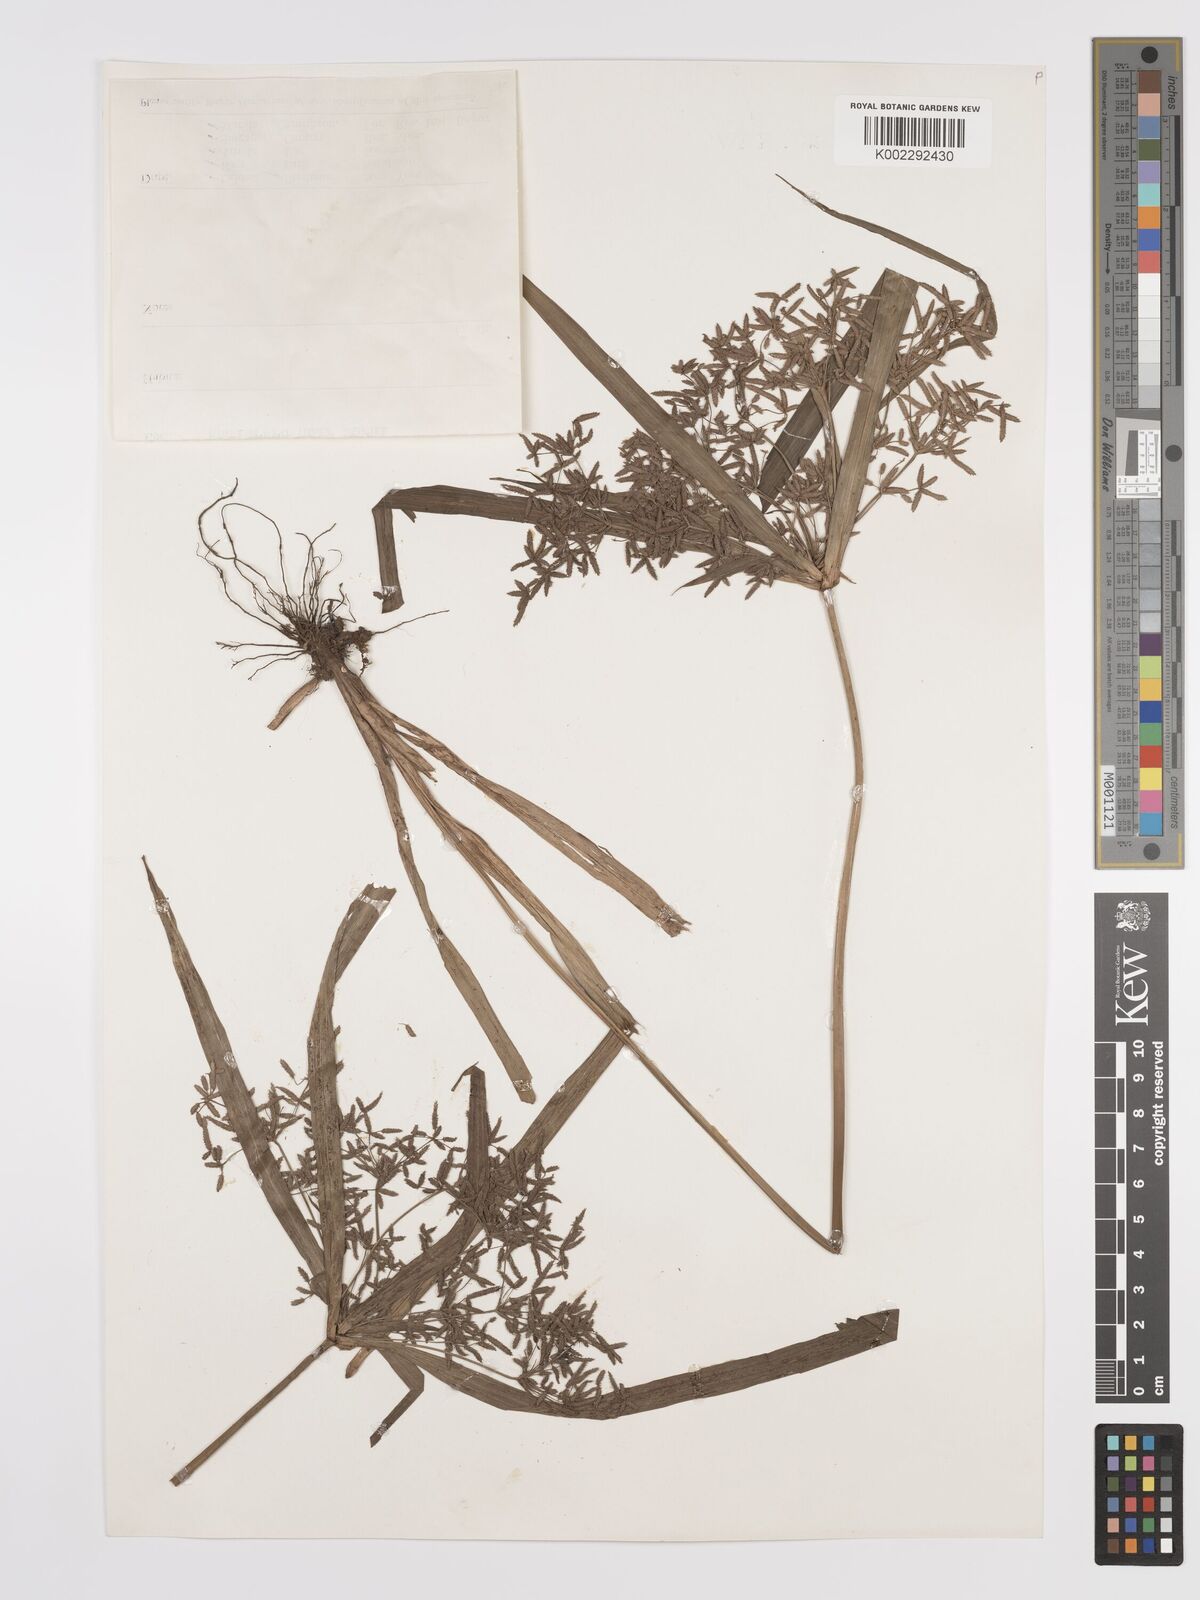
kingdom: Plantae
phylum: Tracheophyta
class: Liliopsida
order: Poales
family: Cyperaceae
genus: Cyperus
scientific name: Cyperus diffusus
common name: Dwarf umbrella grass
